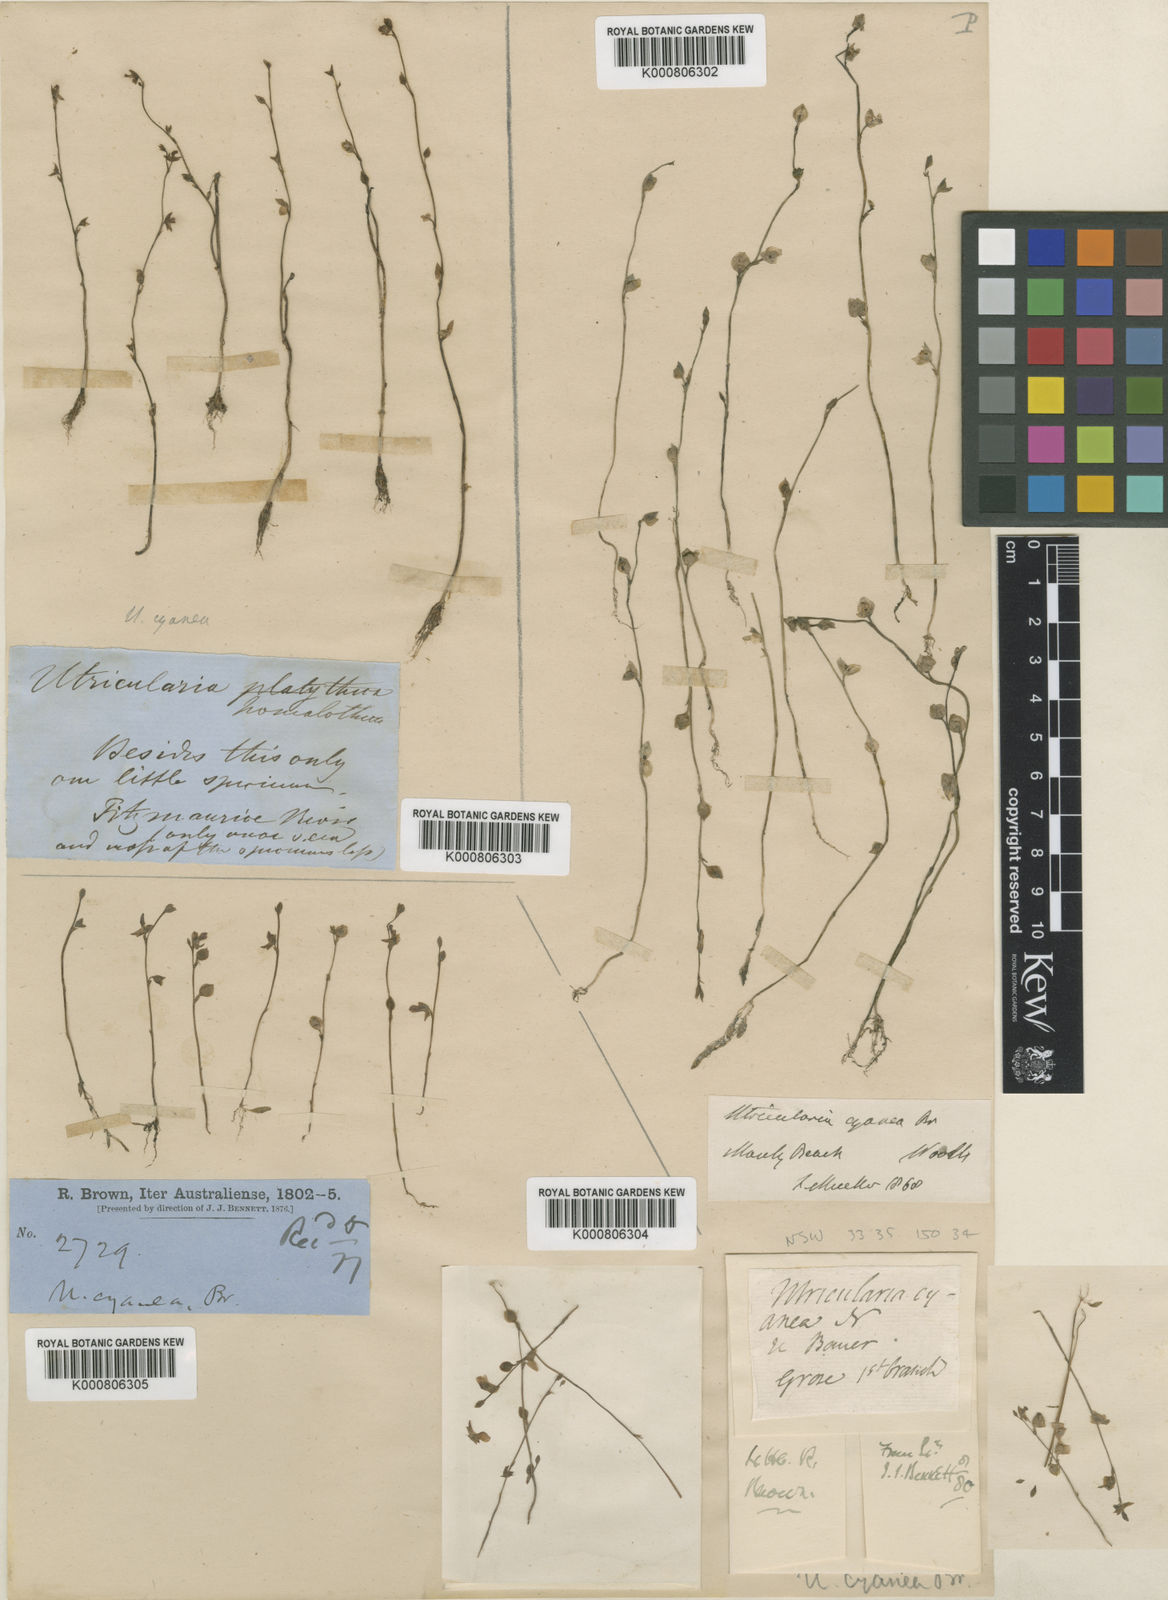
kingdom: Plantae
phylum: Tracheophyta
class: Magnoliopsida
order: Lamiales
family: Lentibulariaceae
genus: Utricularia
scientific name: Utricularia uliginosa
